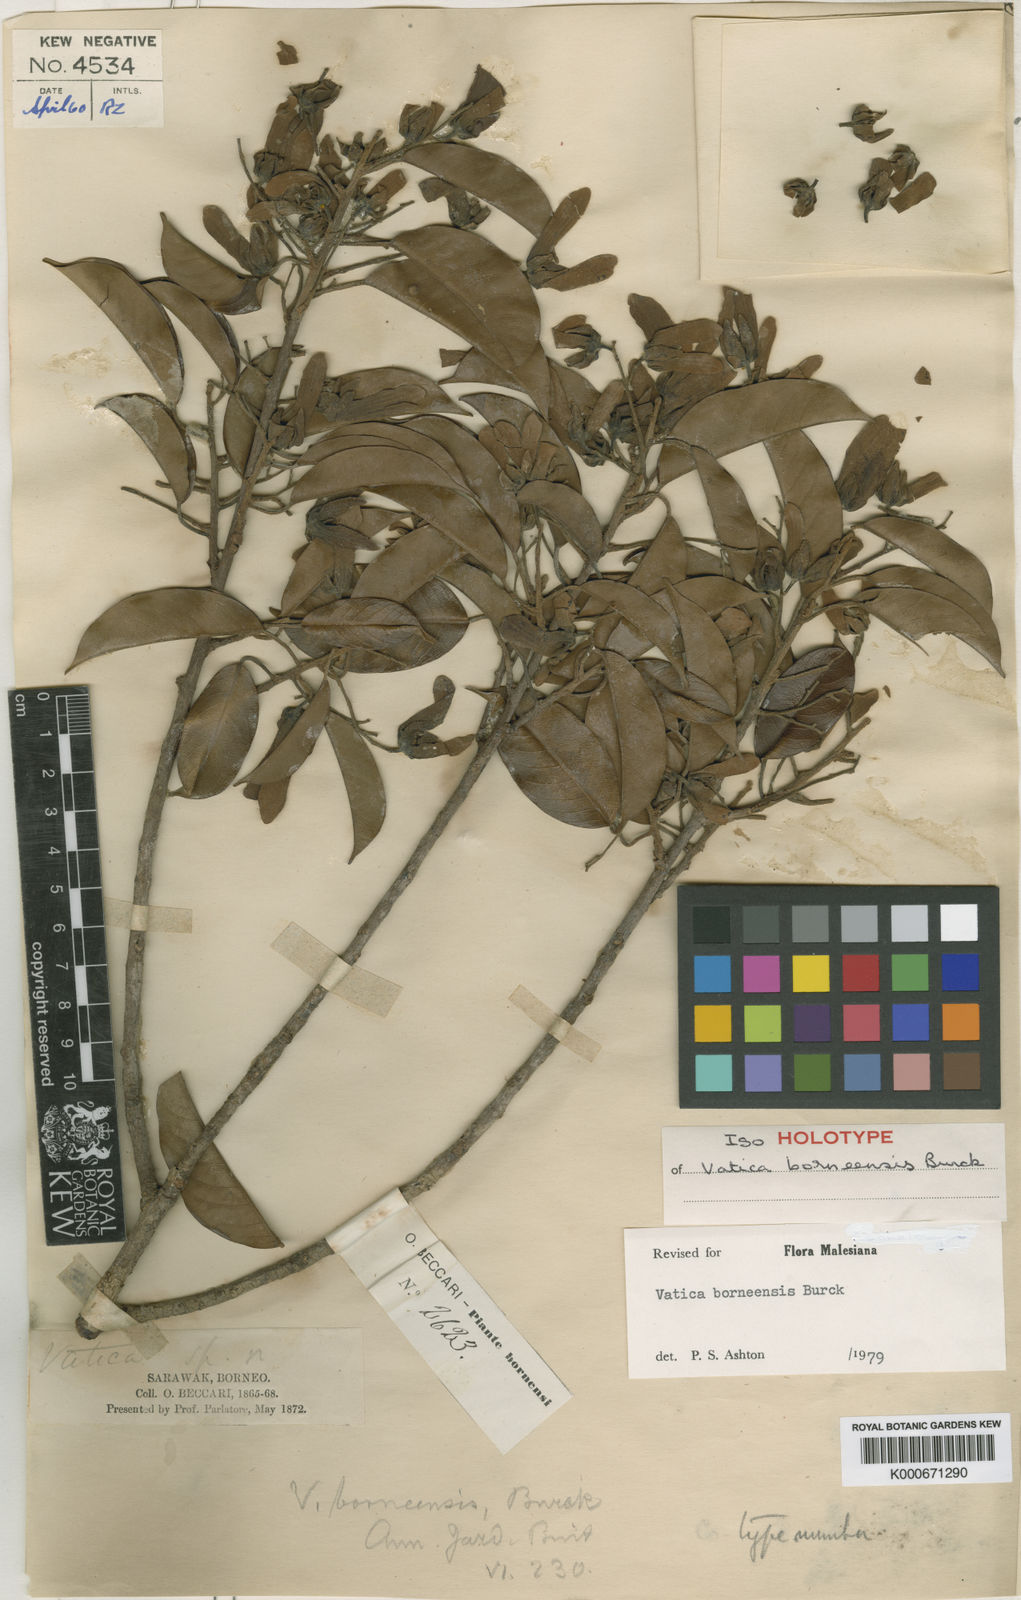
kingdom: Plantae
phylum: Tracheophyta
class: Magnoliopsida
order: Malvales
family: Dipterocarpaceae
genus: Vatica
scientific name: Vatica borneensis
